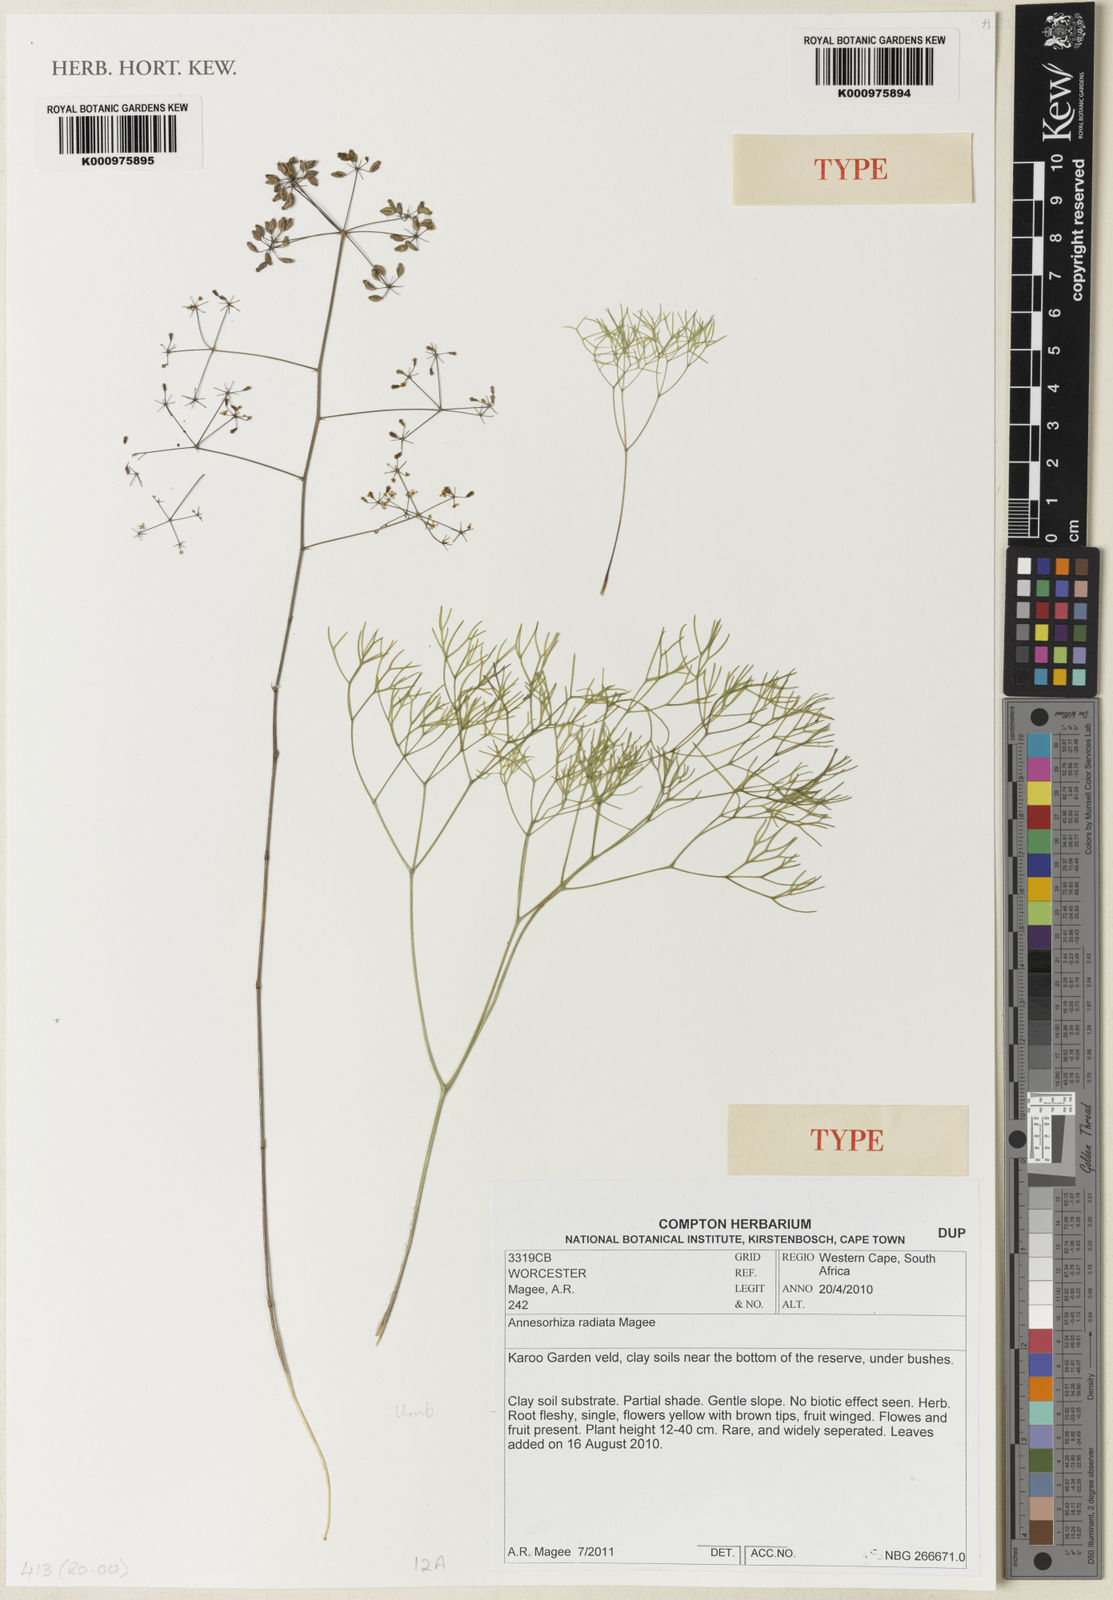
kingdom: Plantae
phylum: Tracheophyta
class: Magnoliopsida
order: Apiales
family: Apiaceae
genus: Annesorhiza
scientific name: Annesorhiza radiata
